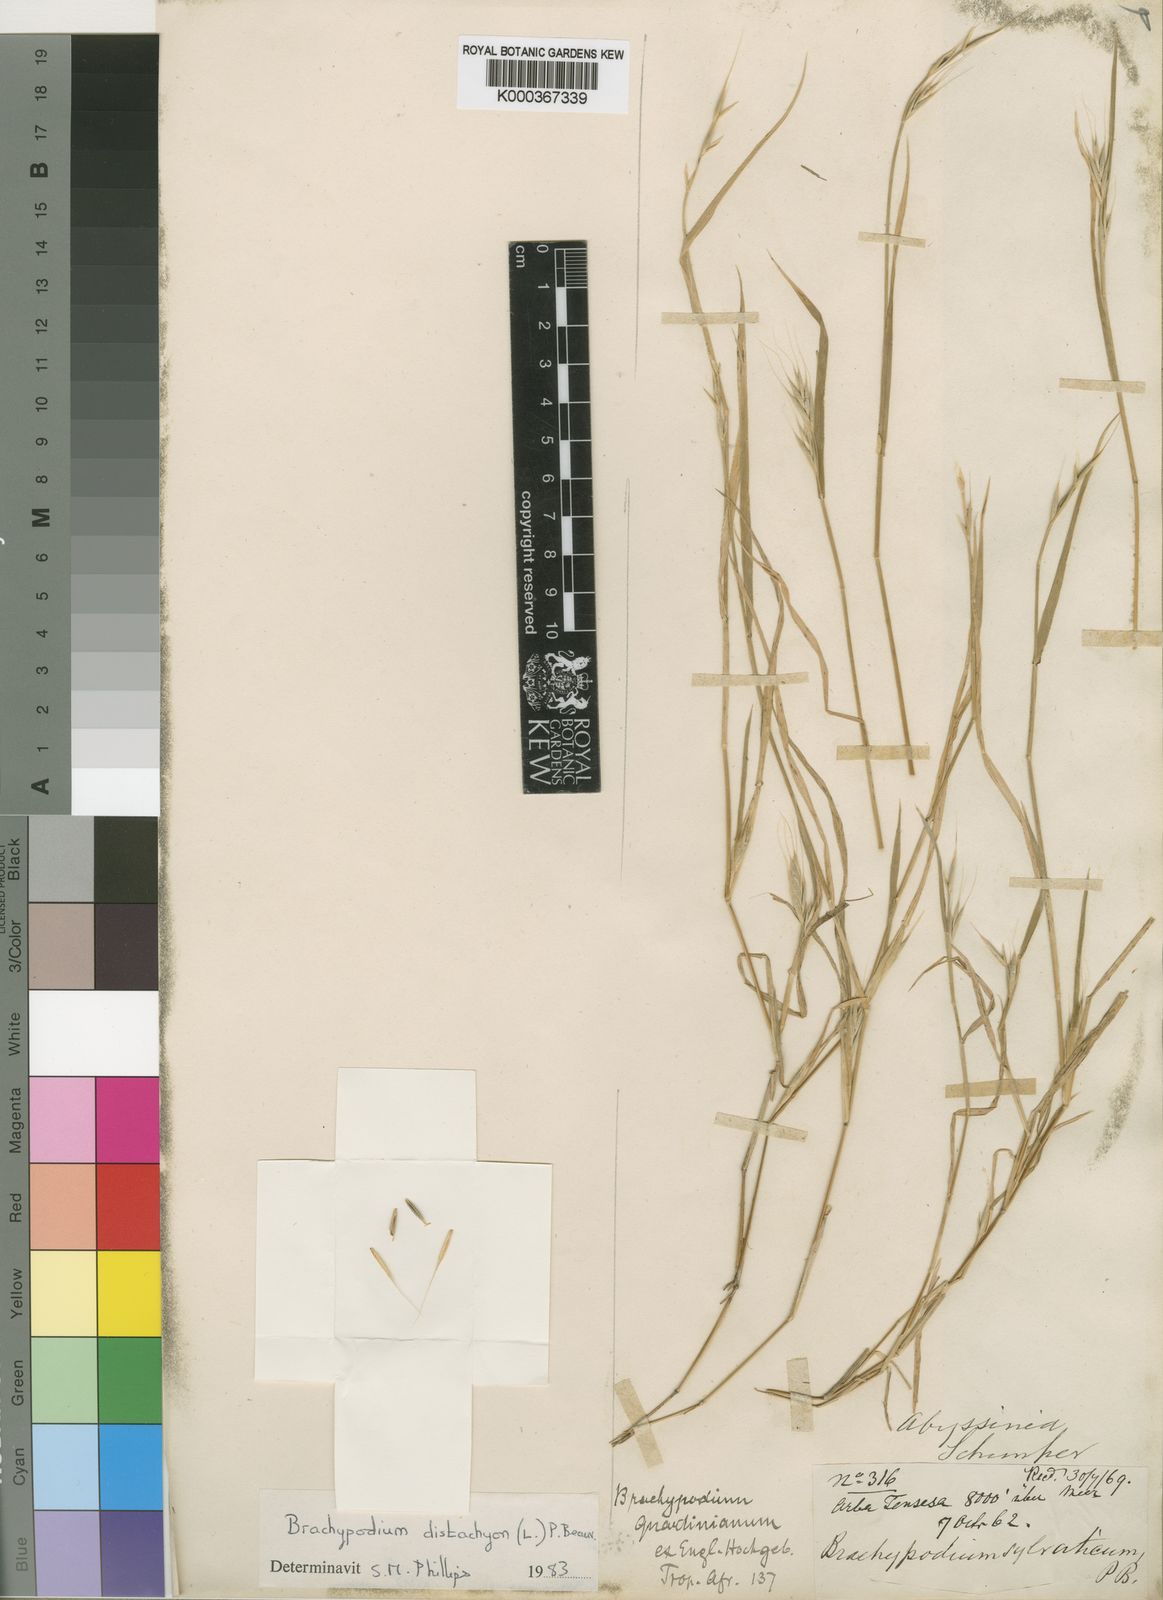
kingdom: Plantae
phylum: Tracheophyta
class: Liliopsida
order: Poales
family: Poaceae
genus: Brachypodium
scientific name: Brachypodium distachyon
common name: Stiff brome
